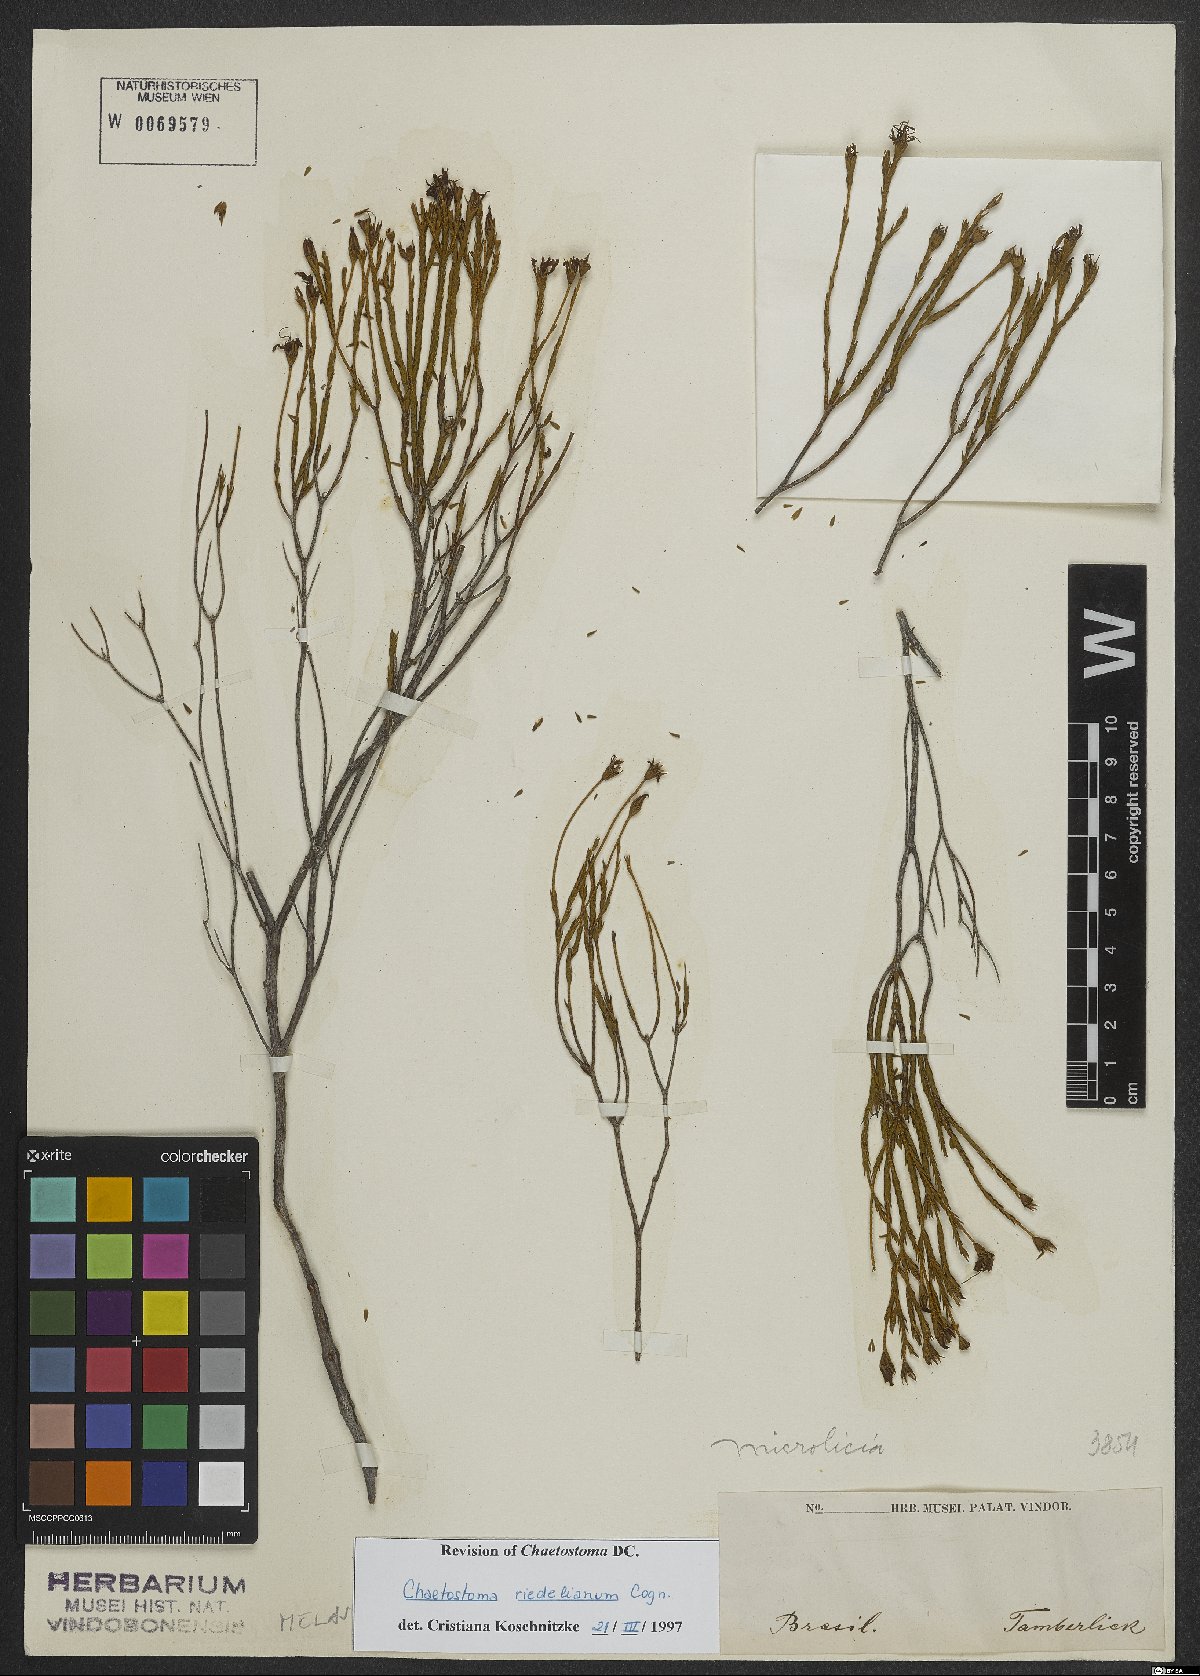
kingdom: Plantae
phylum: Tracheophyta
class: Magnoliopsida
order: Myrtales
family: Melastomataceae
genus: Microlicia
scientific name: Microlicia matogrossensis
